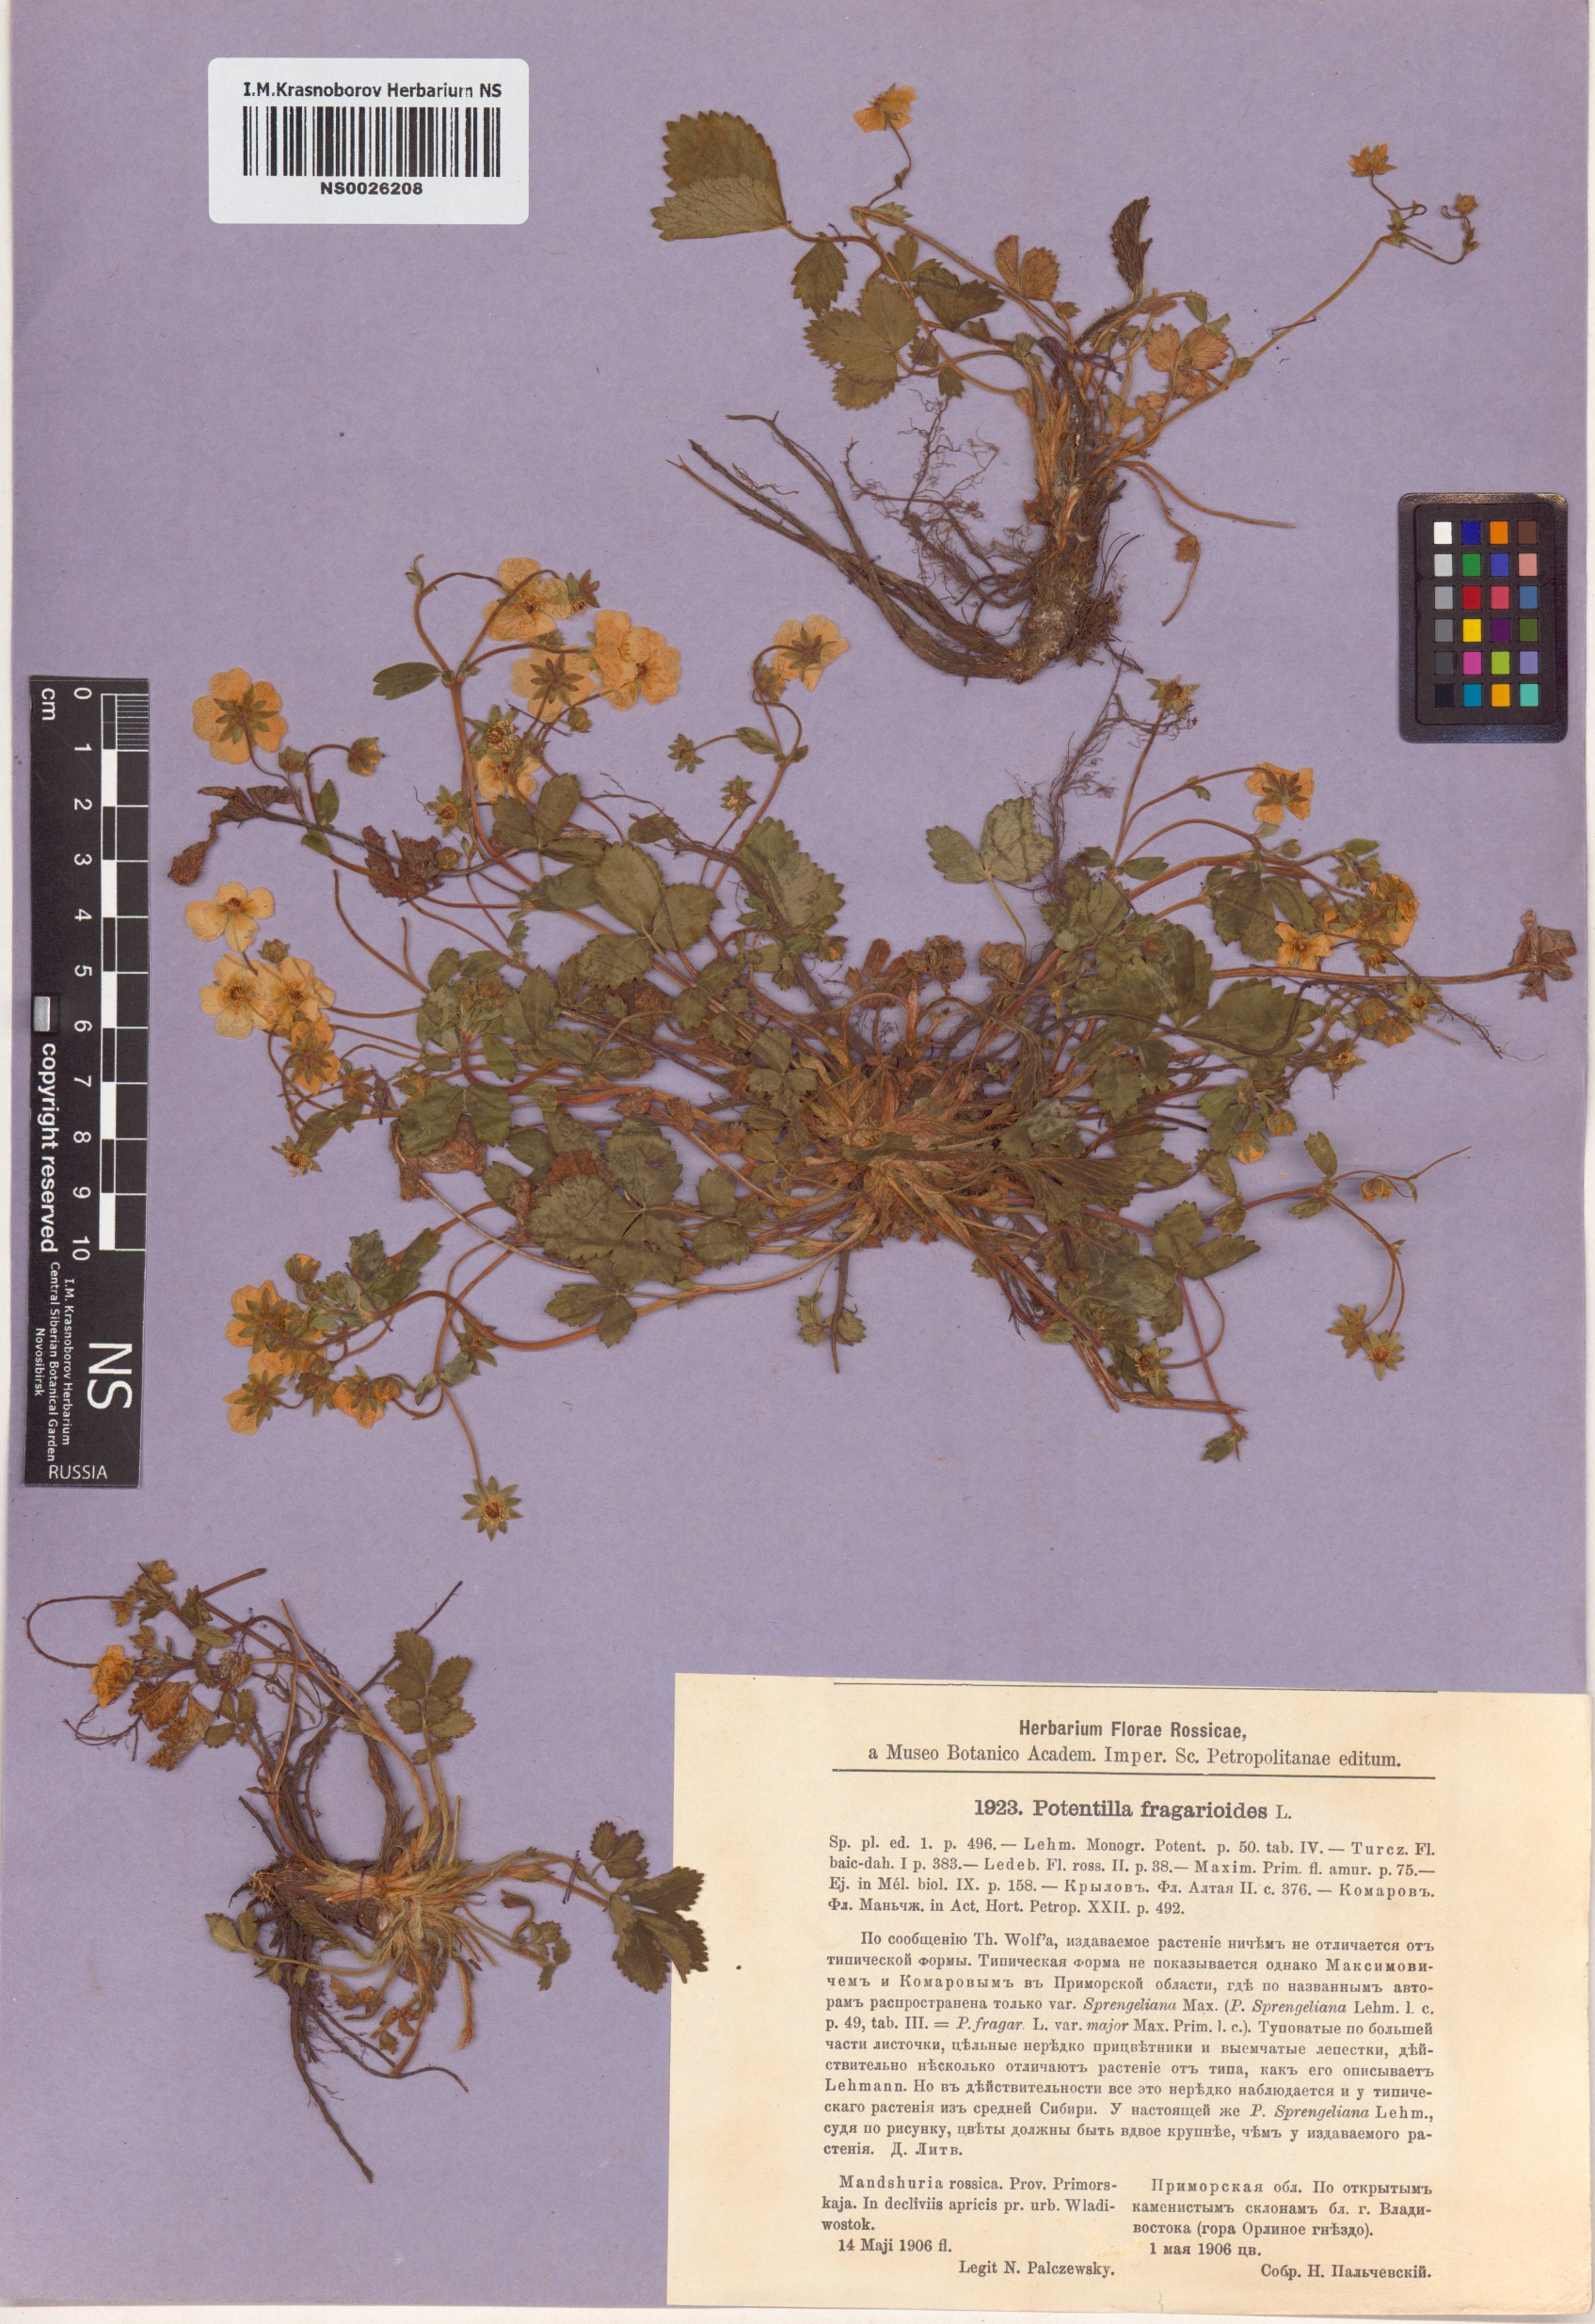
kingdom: Plantae
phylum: Tracheophyta
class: Magnoliopsida
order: Rosales
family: Rosaceae
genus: Potentilla
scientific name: Potentilla fragarioides
